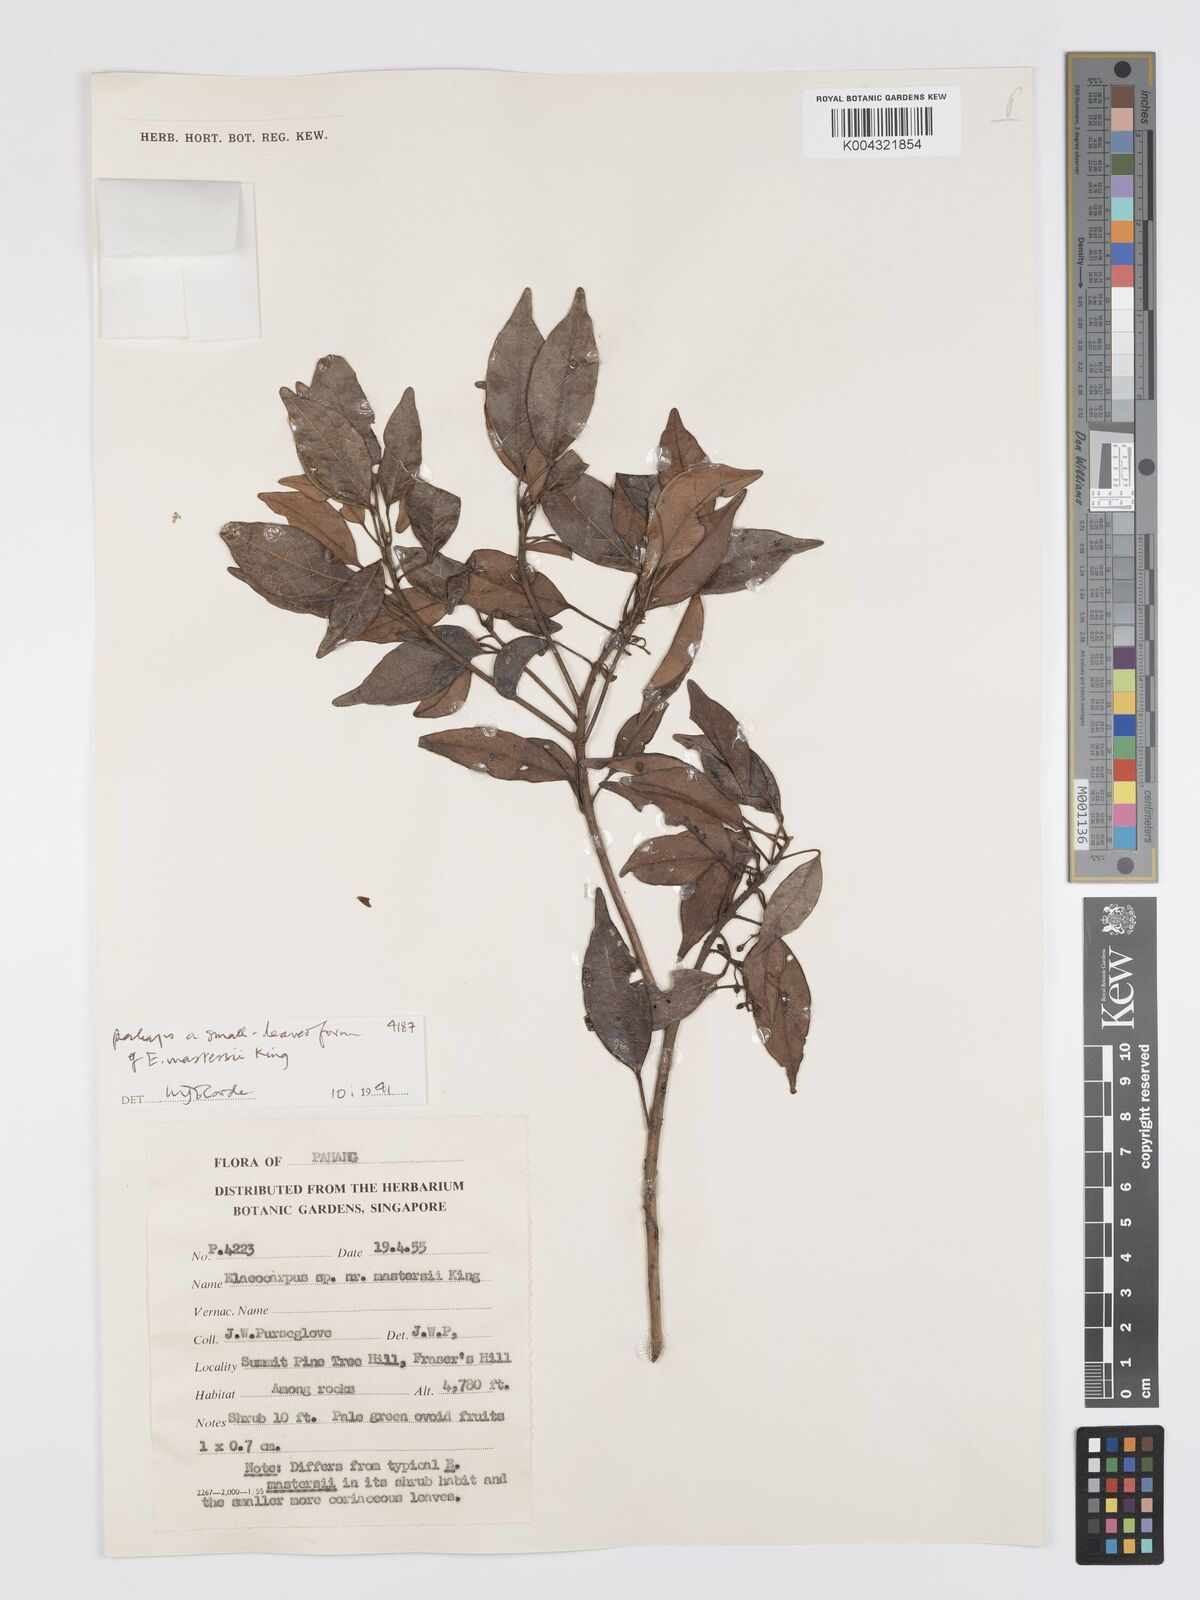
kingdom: Plantae
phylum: Tracheophyta
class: Magnoliopsida
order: Oxalidales
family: Elaeocarpaceae
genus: Elaeocarpus
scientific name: Elaeocarpus mastersii
